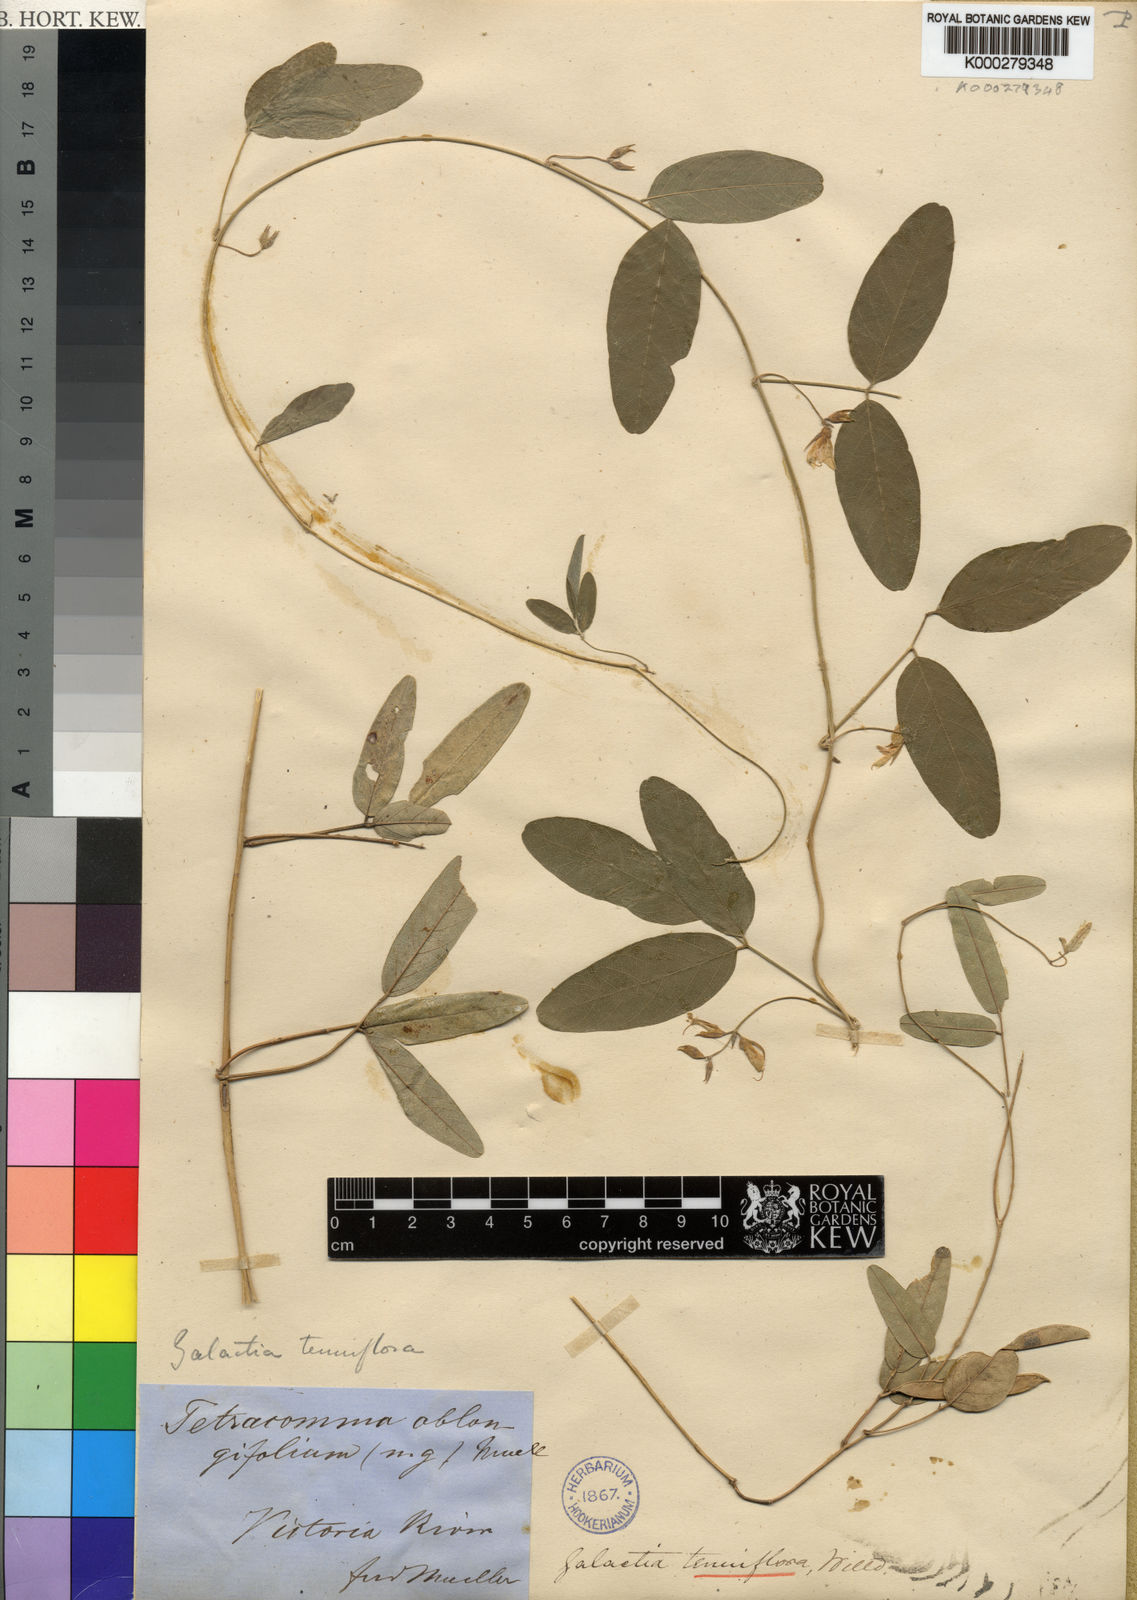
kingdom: Plantae
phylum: Tracheophyta
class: Magnoliopsida
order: Fabales
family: Fabaceae
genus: Galactia
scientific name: Galactia striata
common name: Florida hammock milkpea
